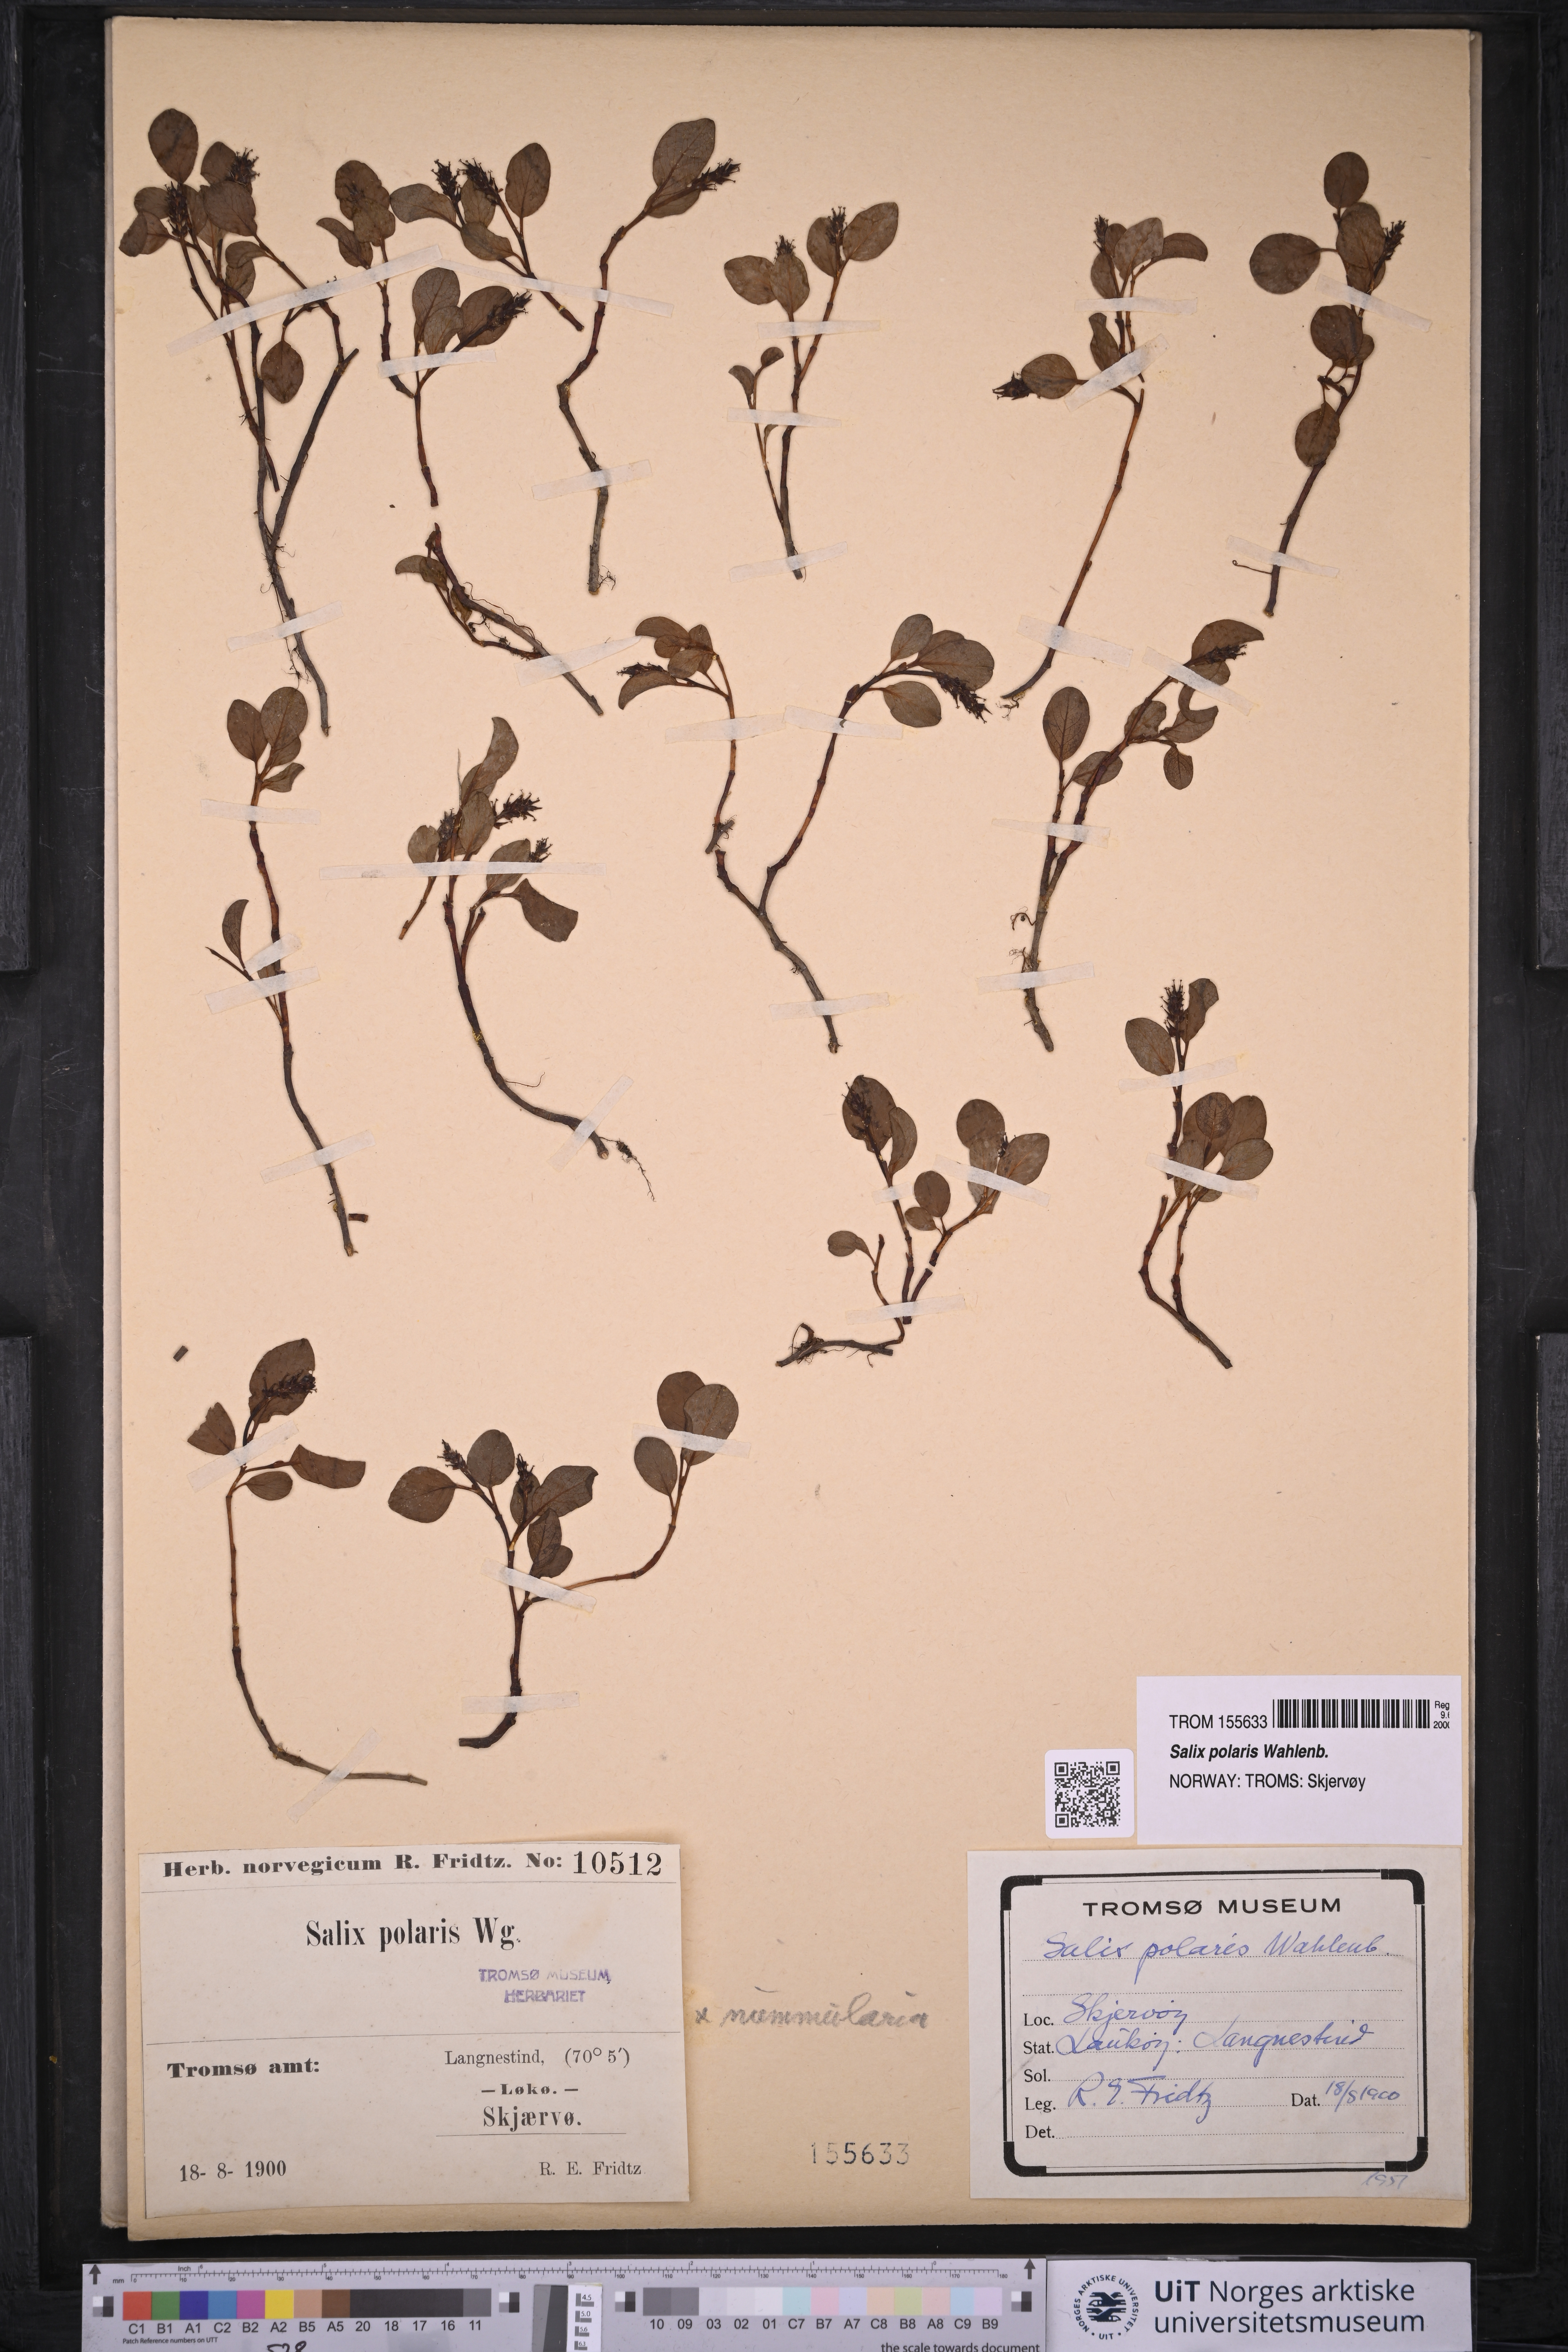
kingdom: Plantae
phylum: Tracheophyta
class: Magnoliopsida
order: Malpighiales
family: Salicaceae
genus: Salix
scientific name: Salix polaris
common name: Polar willow
